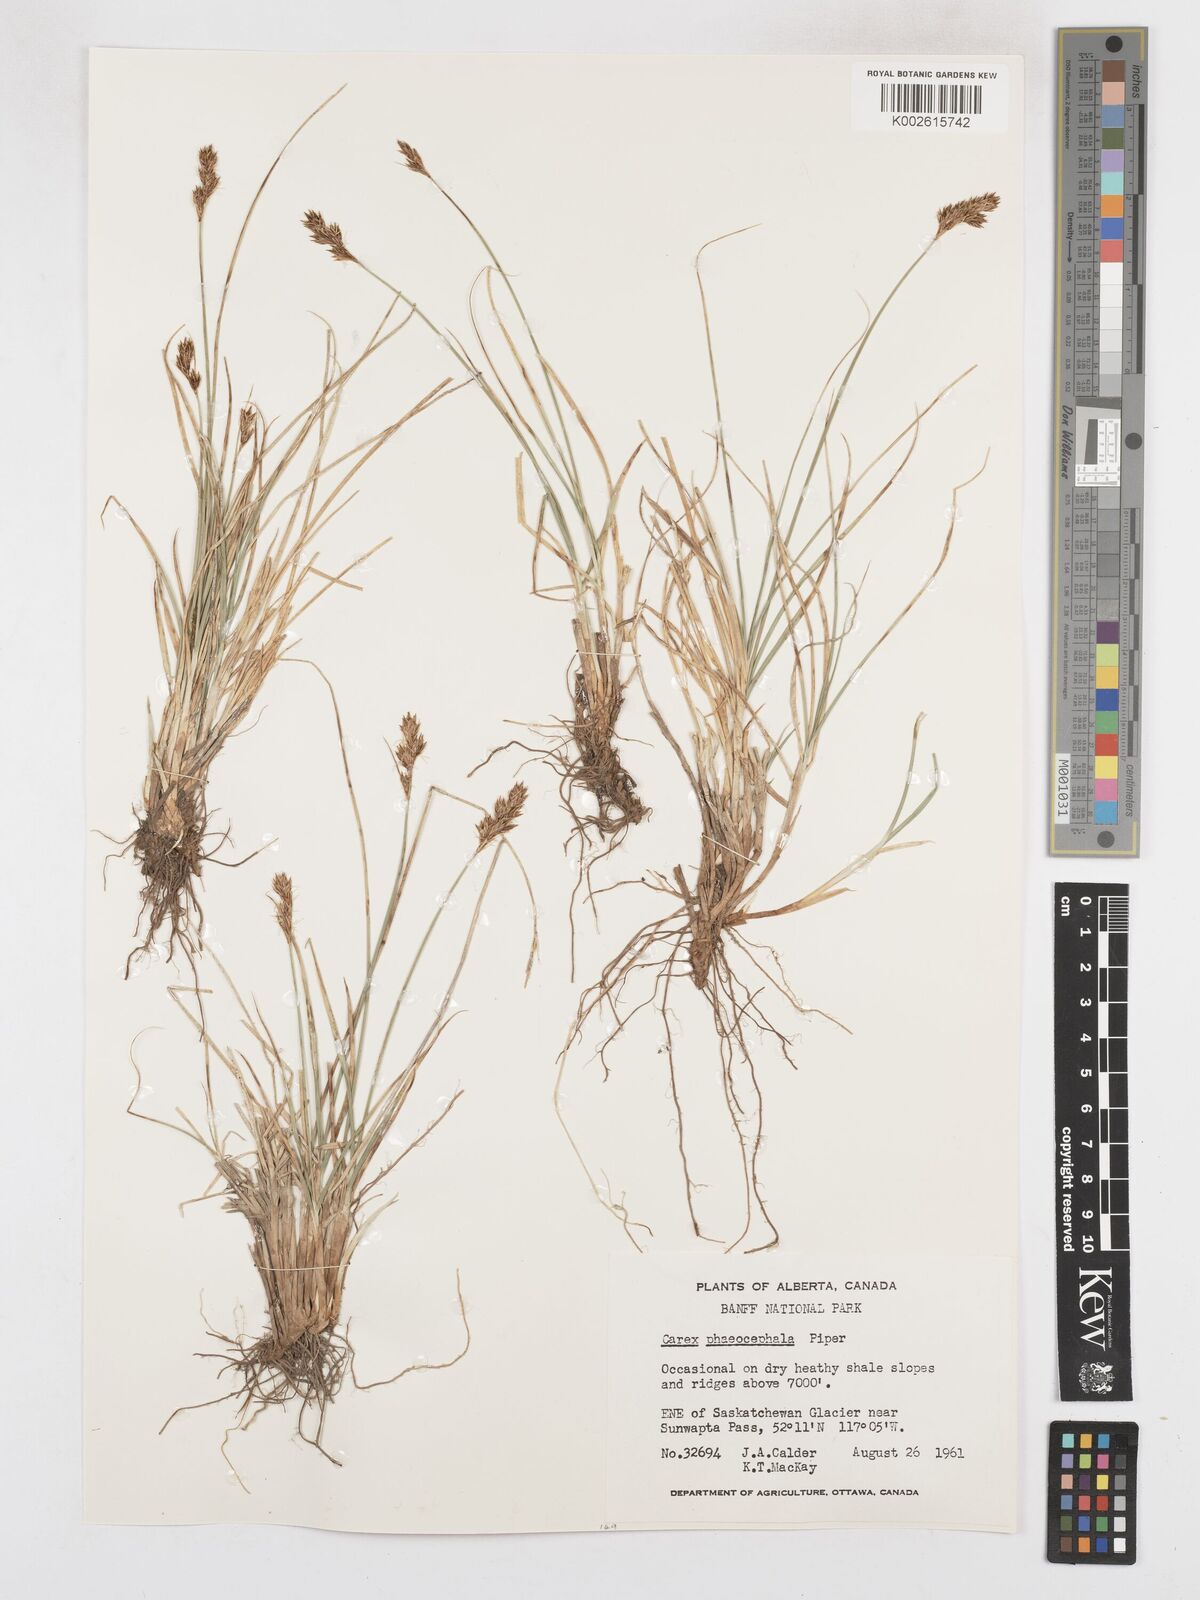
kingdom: Plantae
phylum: Tracheophyta
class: Liliopsida
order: Poales
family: Cyperaceae
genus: Carex
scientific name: Carex phaeocephala
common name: Brown-head sedge
